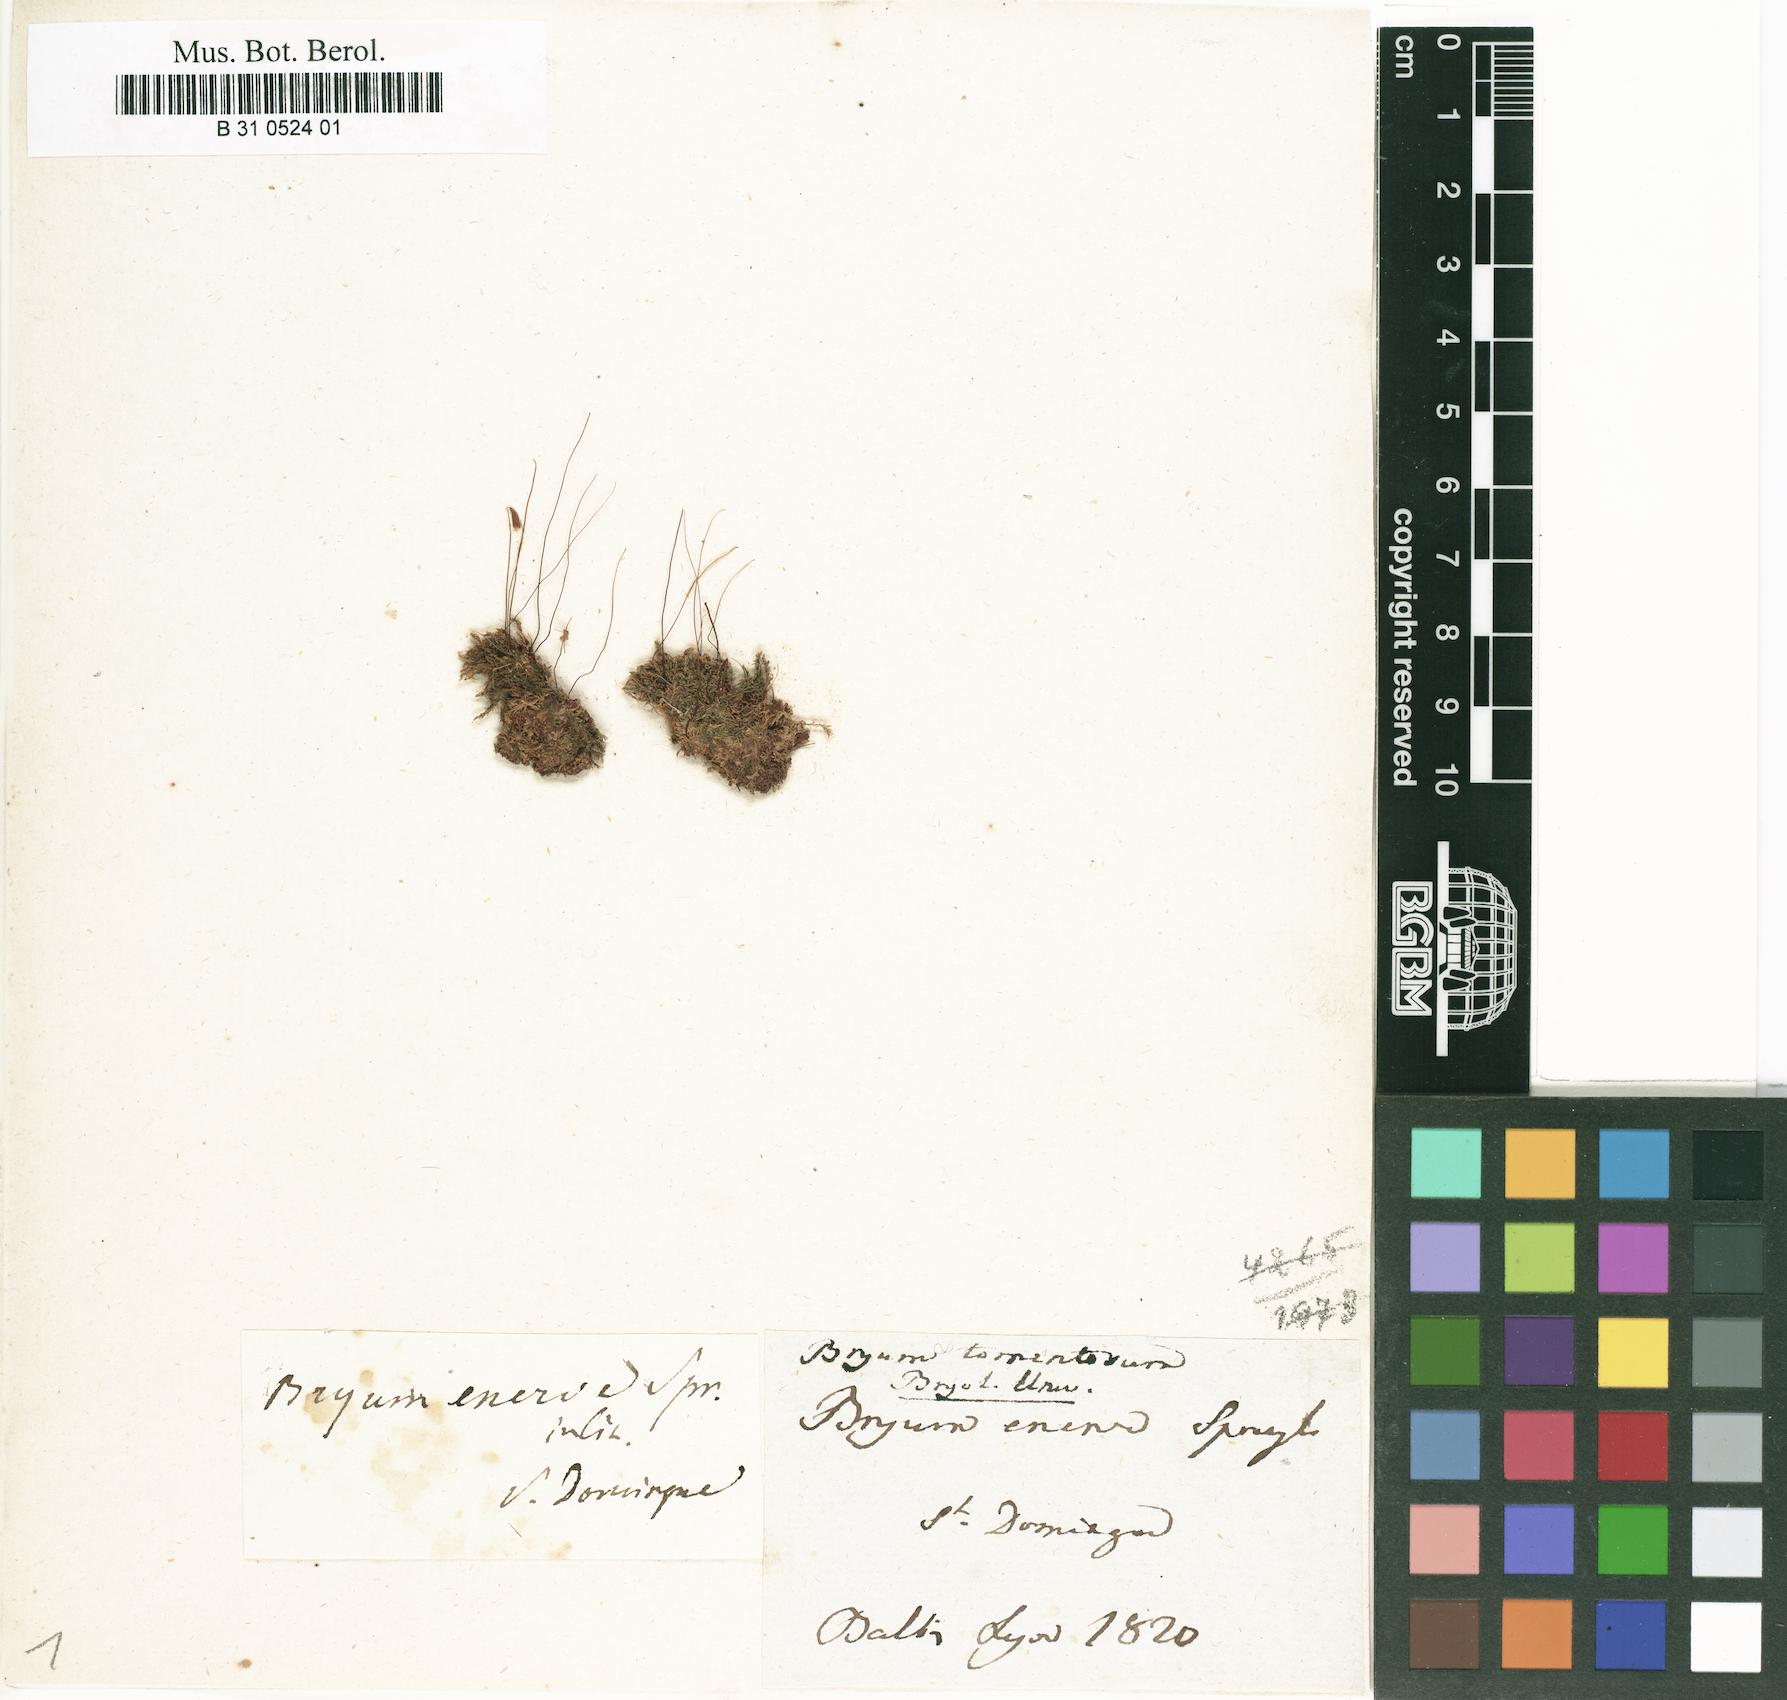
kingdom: Plantae
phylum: Bryophyta
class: Bryopsida
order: Bartramiales
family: Bartramiaceae
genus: Breutelia
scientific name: Breutelia tomentosa
